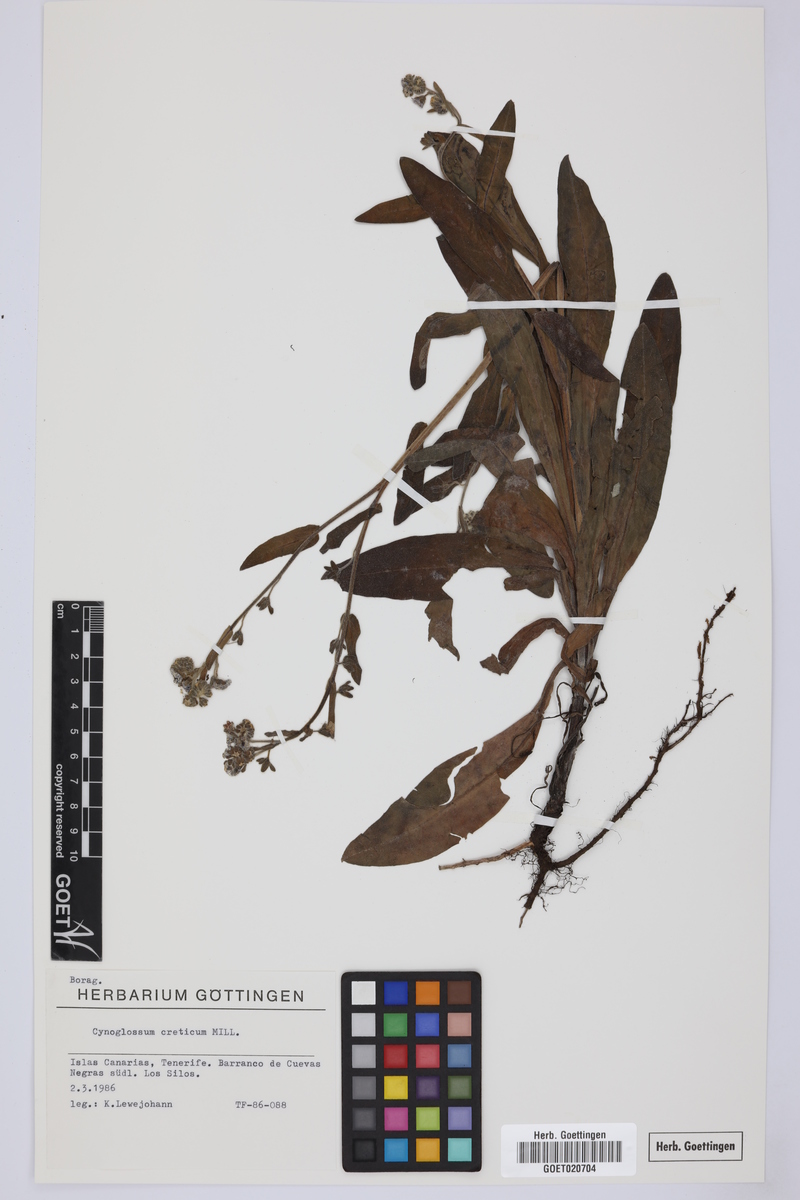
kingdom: Plantae
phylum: Tracheophyta
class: Magnoliopsida
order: Boraginales
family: Boraginaceae
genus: Cynoglossum
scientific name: Cynoglossum creticum
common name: Blue hound's tongue
